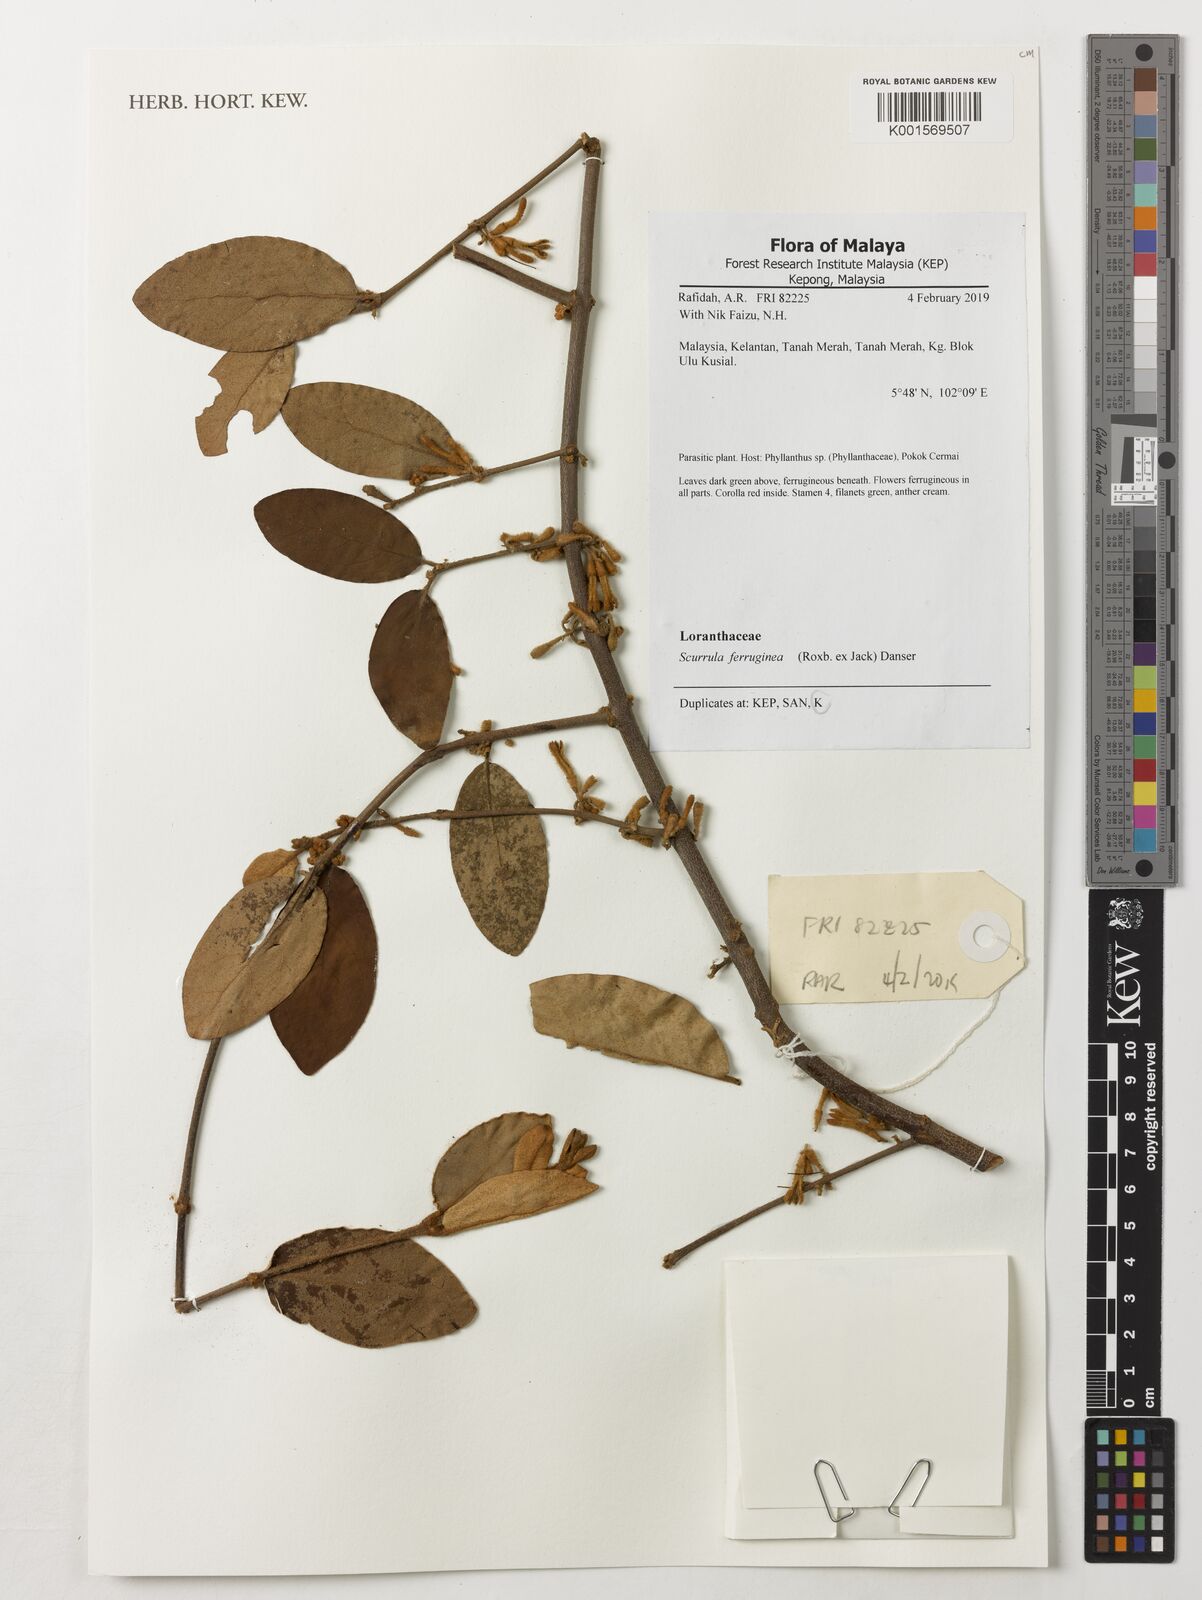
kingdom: Plantae
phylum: Tracheophyta
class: Magnoliopsida
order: Santalales
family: Loranthaceae
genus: Scurrula
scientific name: Scurrula ferruginea
